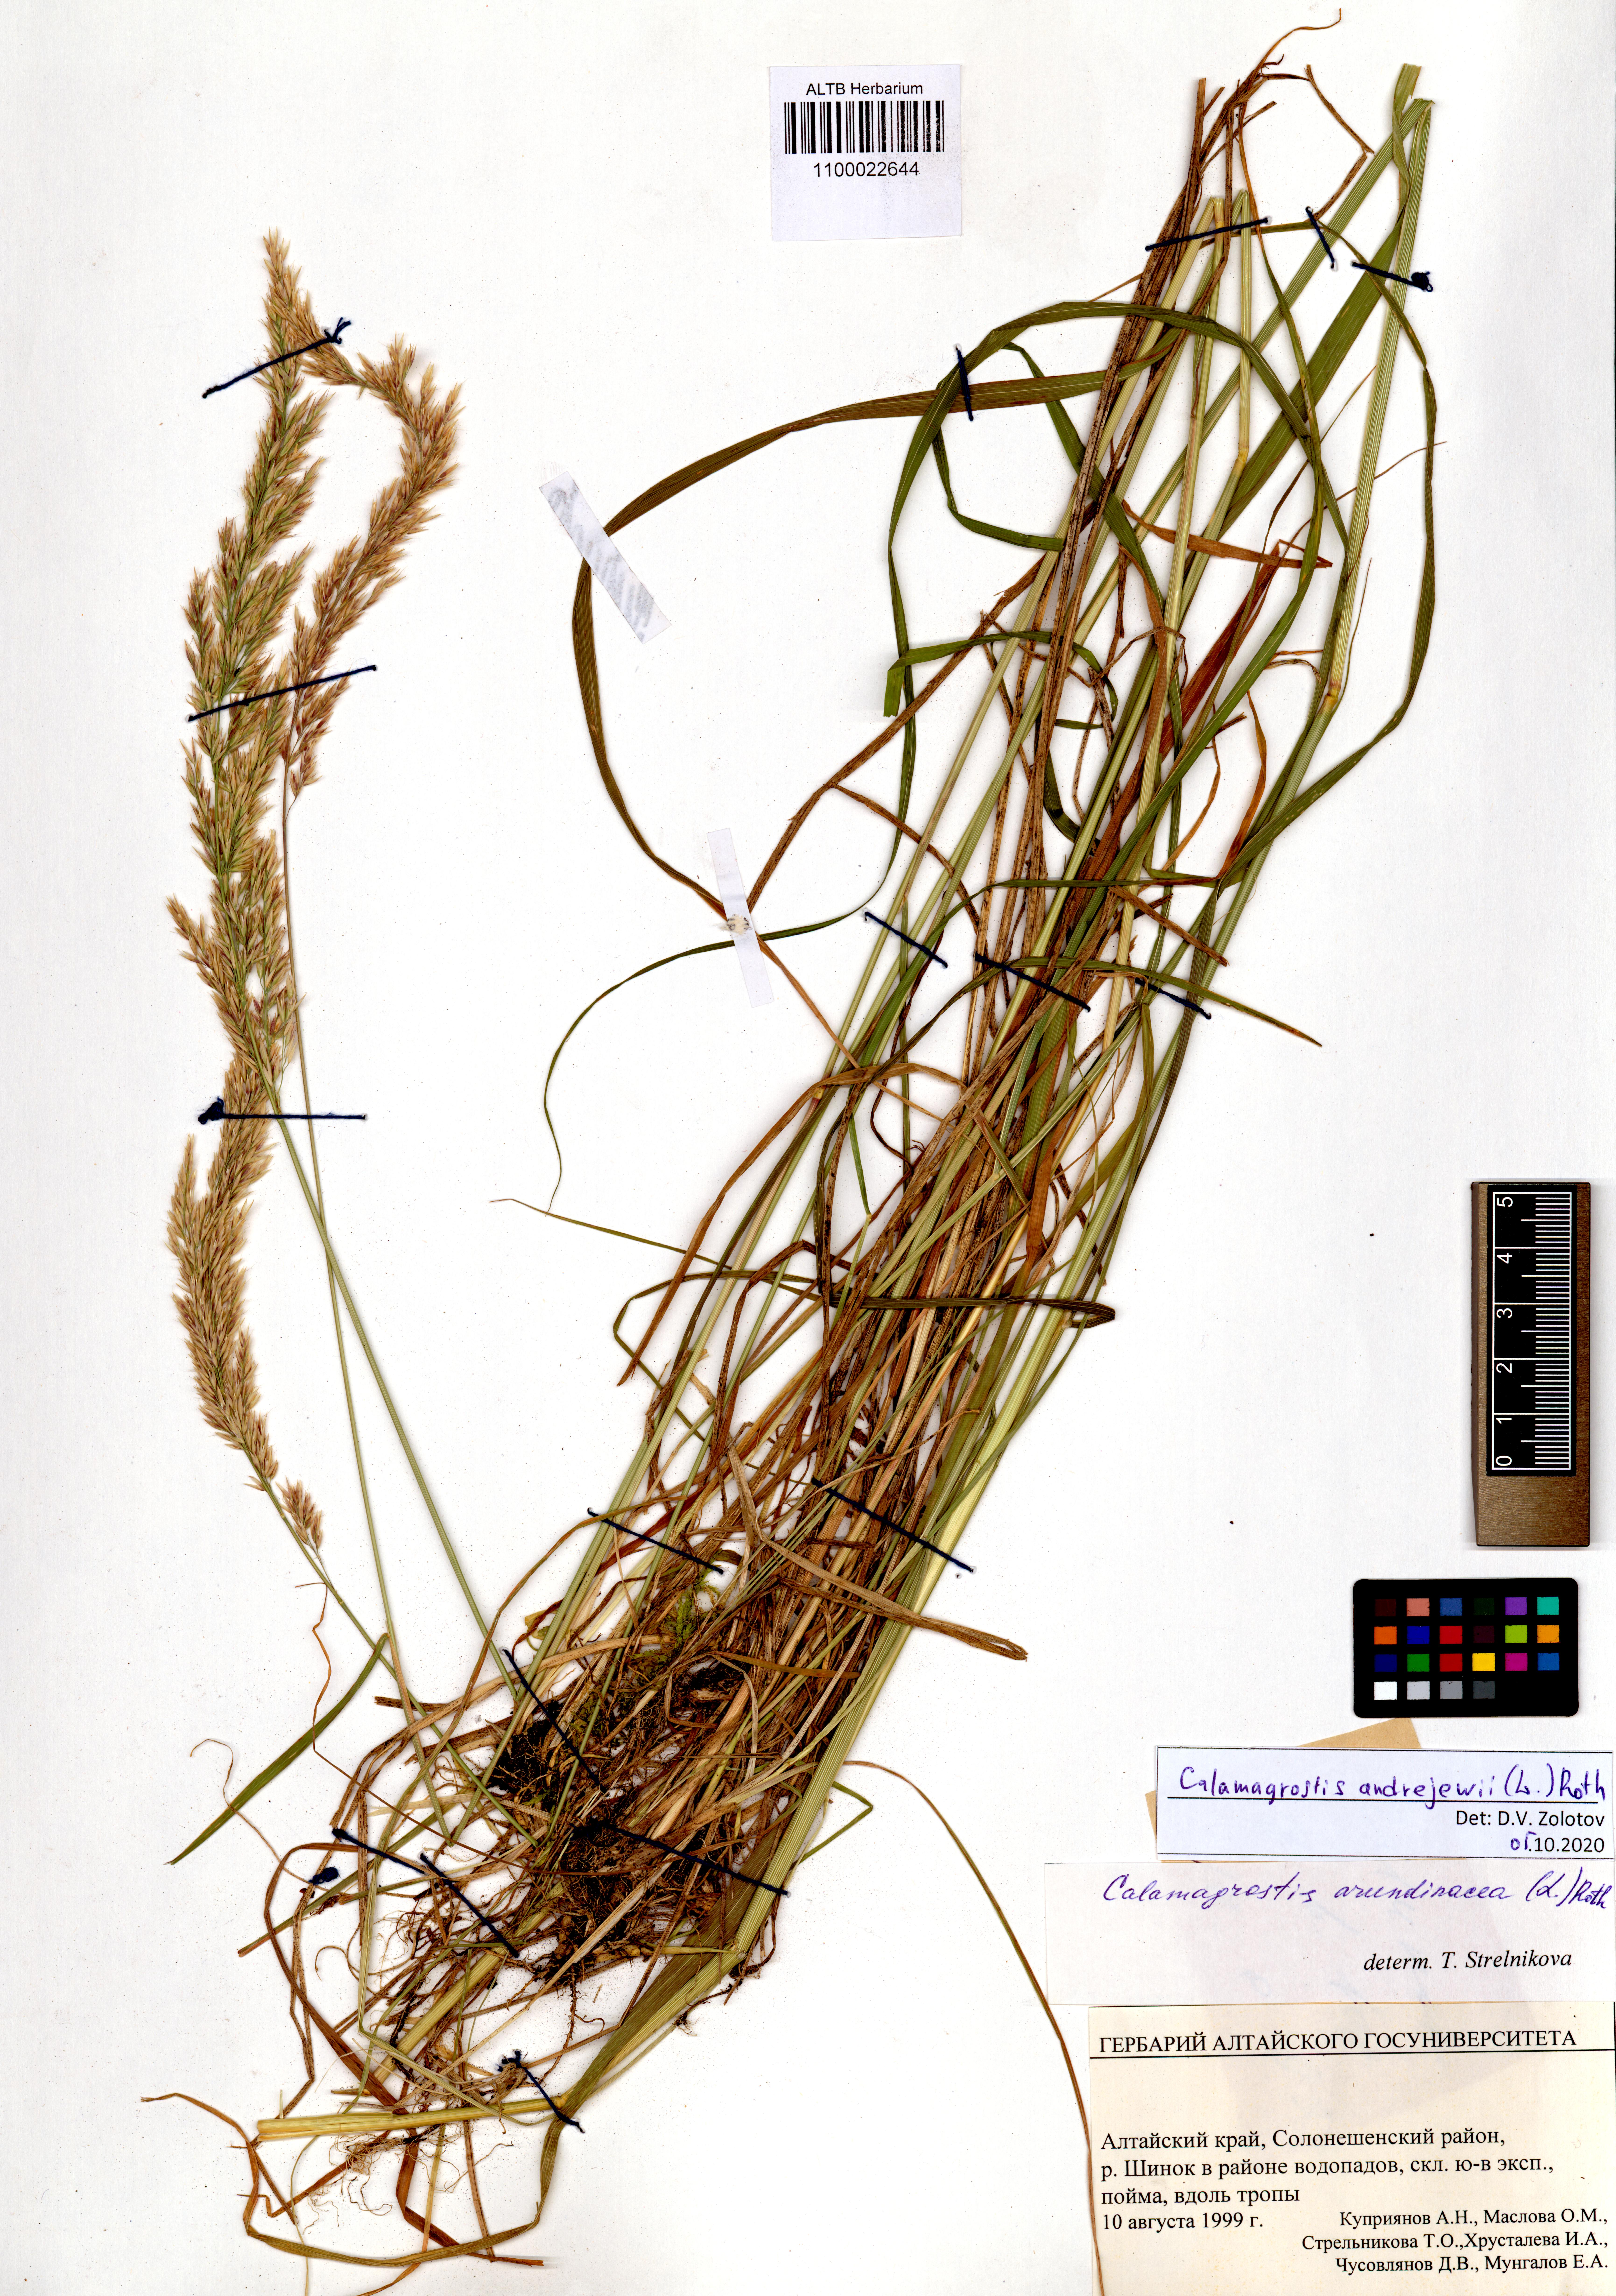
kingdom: Plantae
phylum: Tracheophyta
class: Liliopsida
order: Poales
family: Poaceae
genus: Calamagrostis
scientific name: Calamagrostis andrejewii
